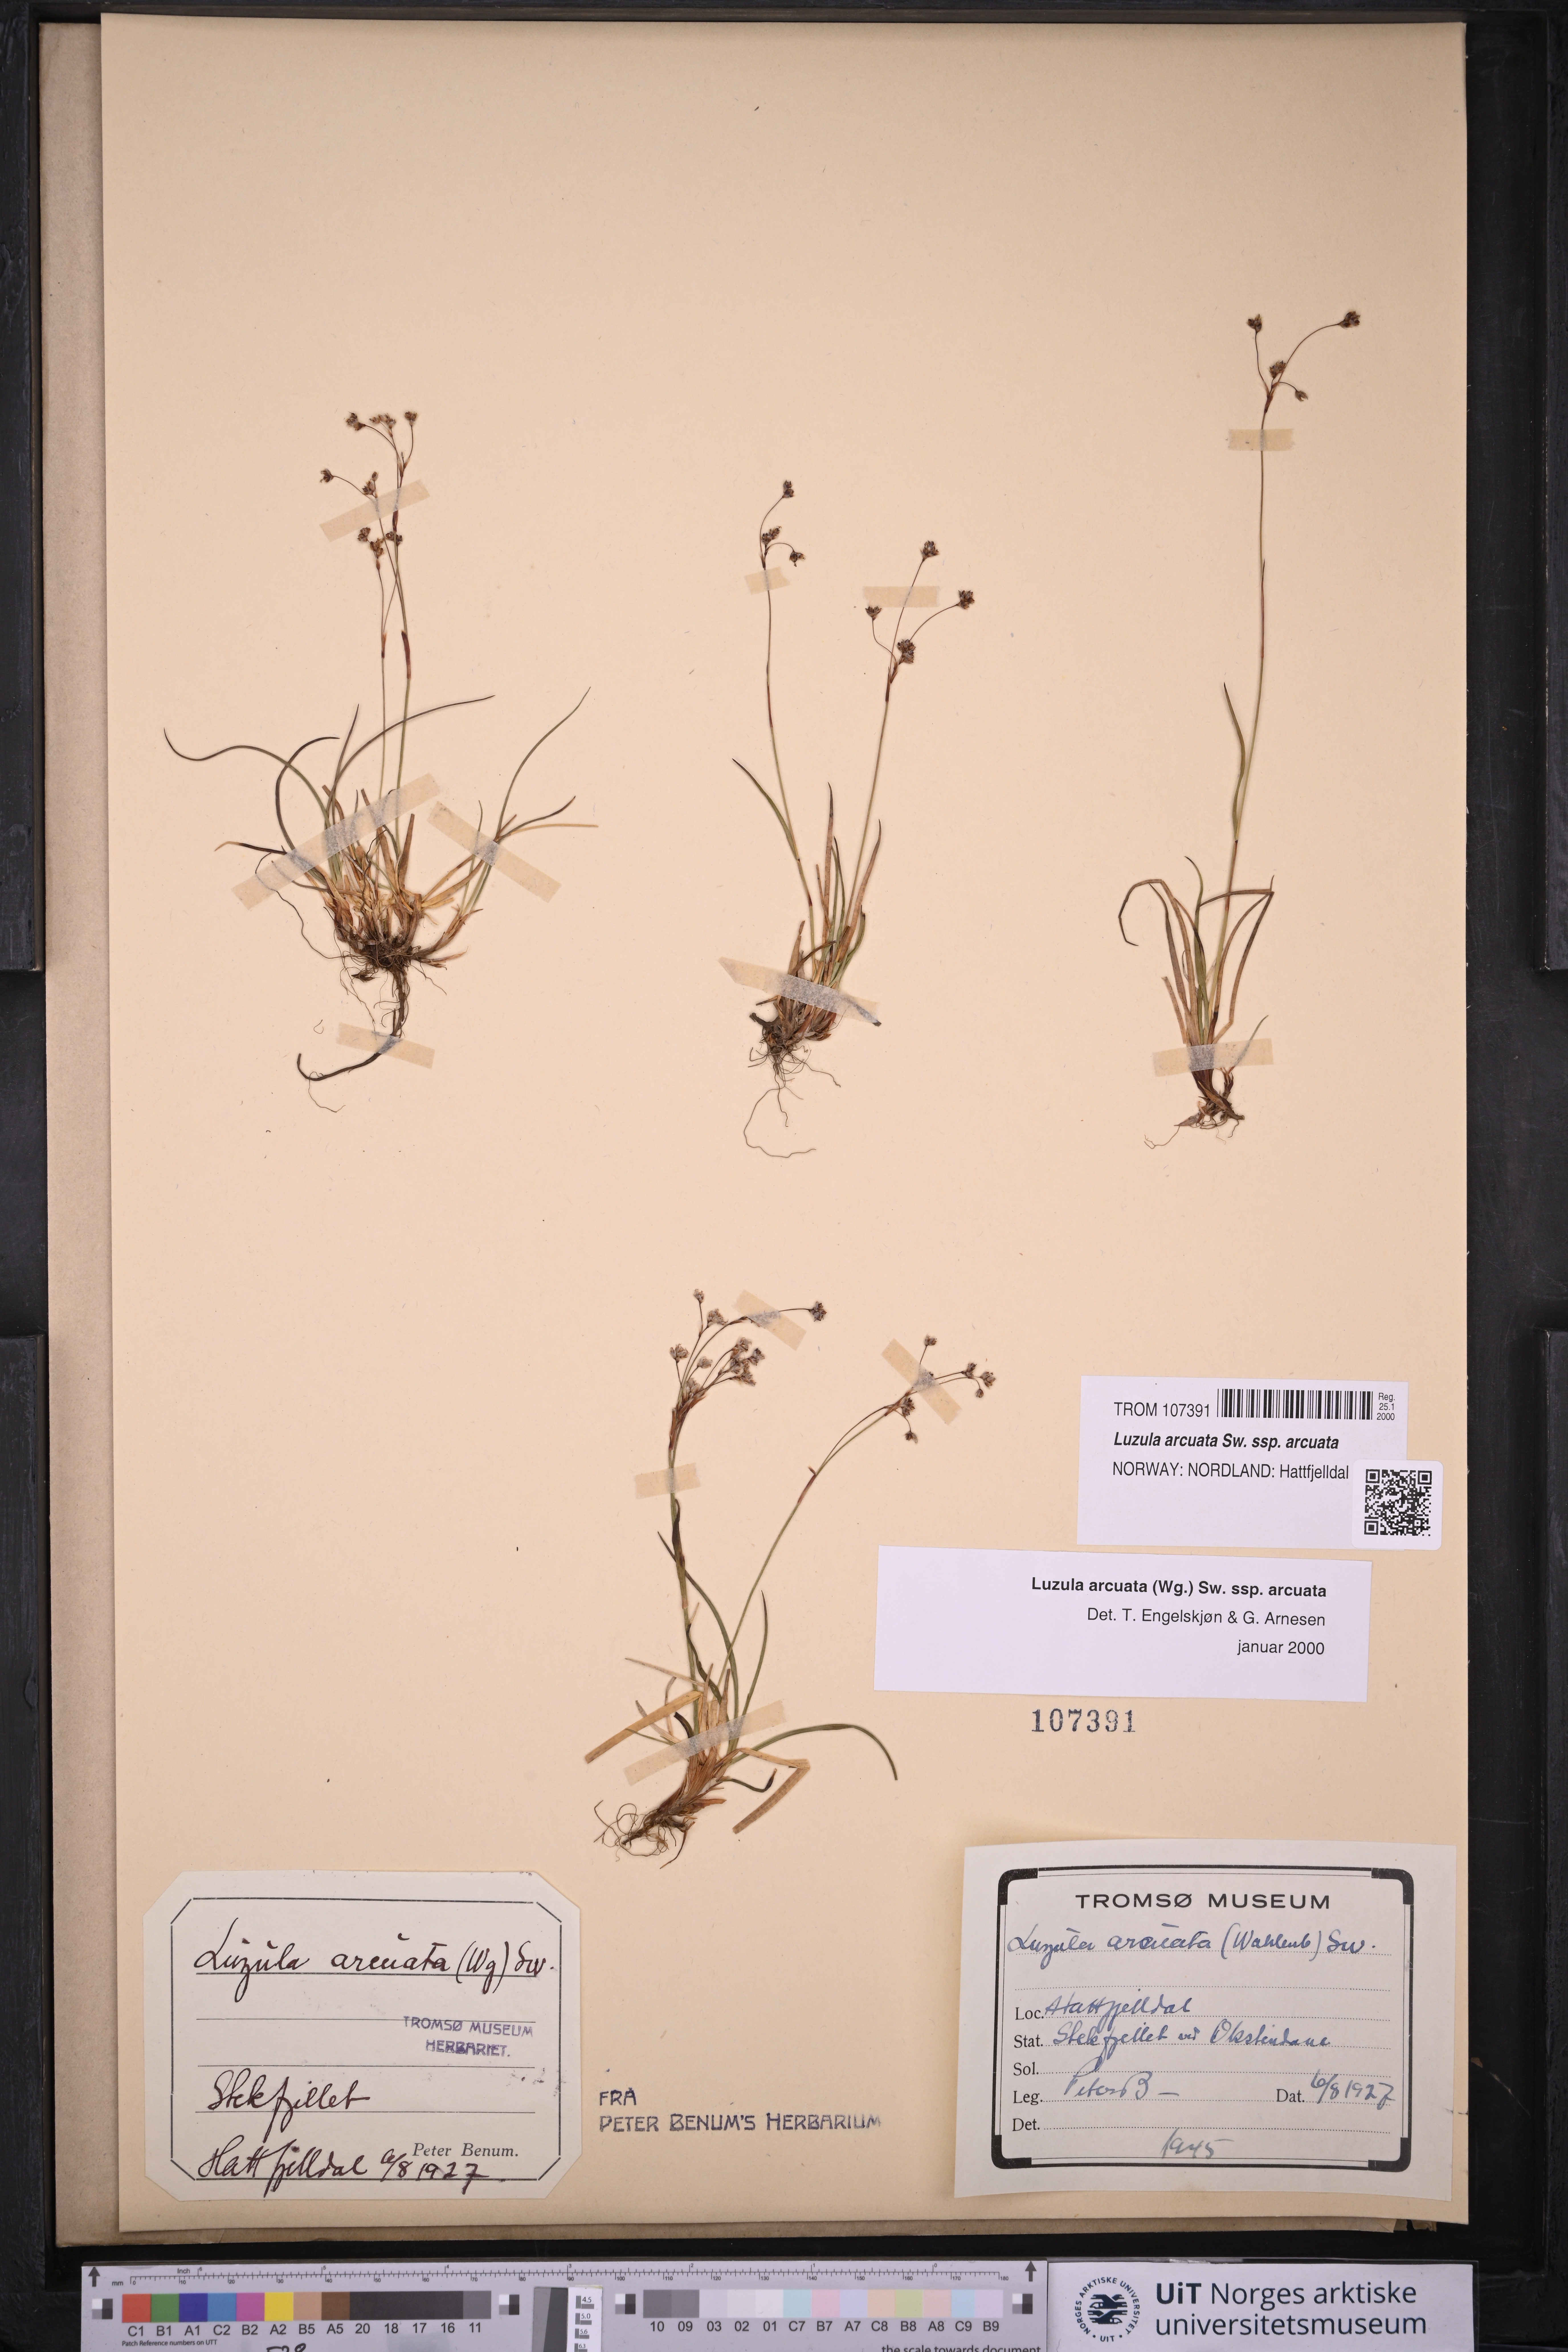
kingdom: Plantae
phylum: Tracheophyta
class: Liliopsida
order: Poales
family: Juncaceae
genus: Luzula
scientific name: Luzula arcuata
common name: Curved wood-rush
